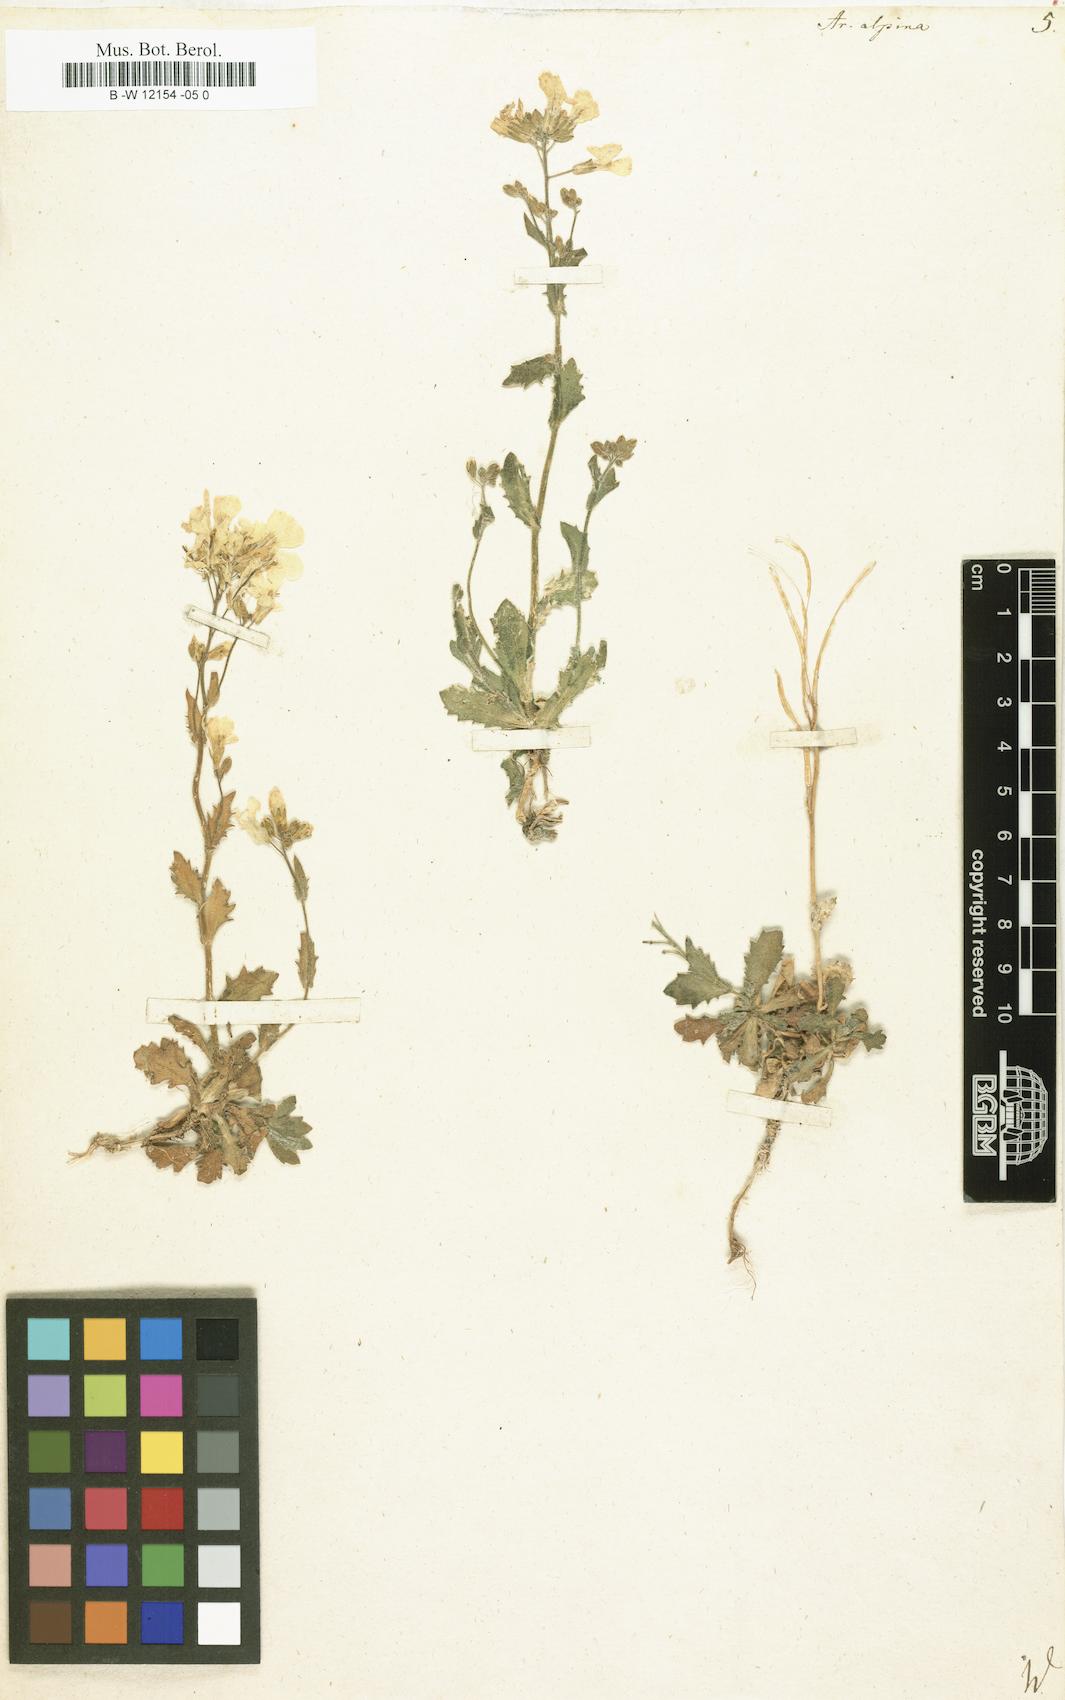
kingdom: Plantae
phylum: Tracheophyta
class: Magnoliopsida
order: Brassicales
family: Brassicaceae
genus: Arabis
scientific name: Arabis alpina
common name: Alpine rock-cress
